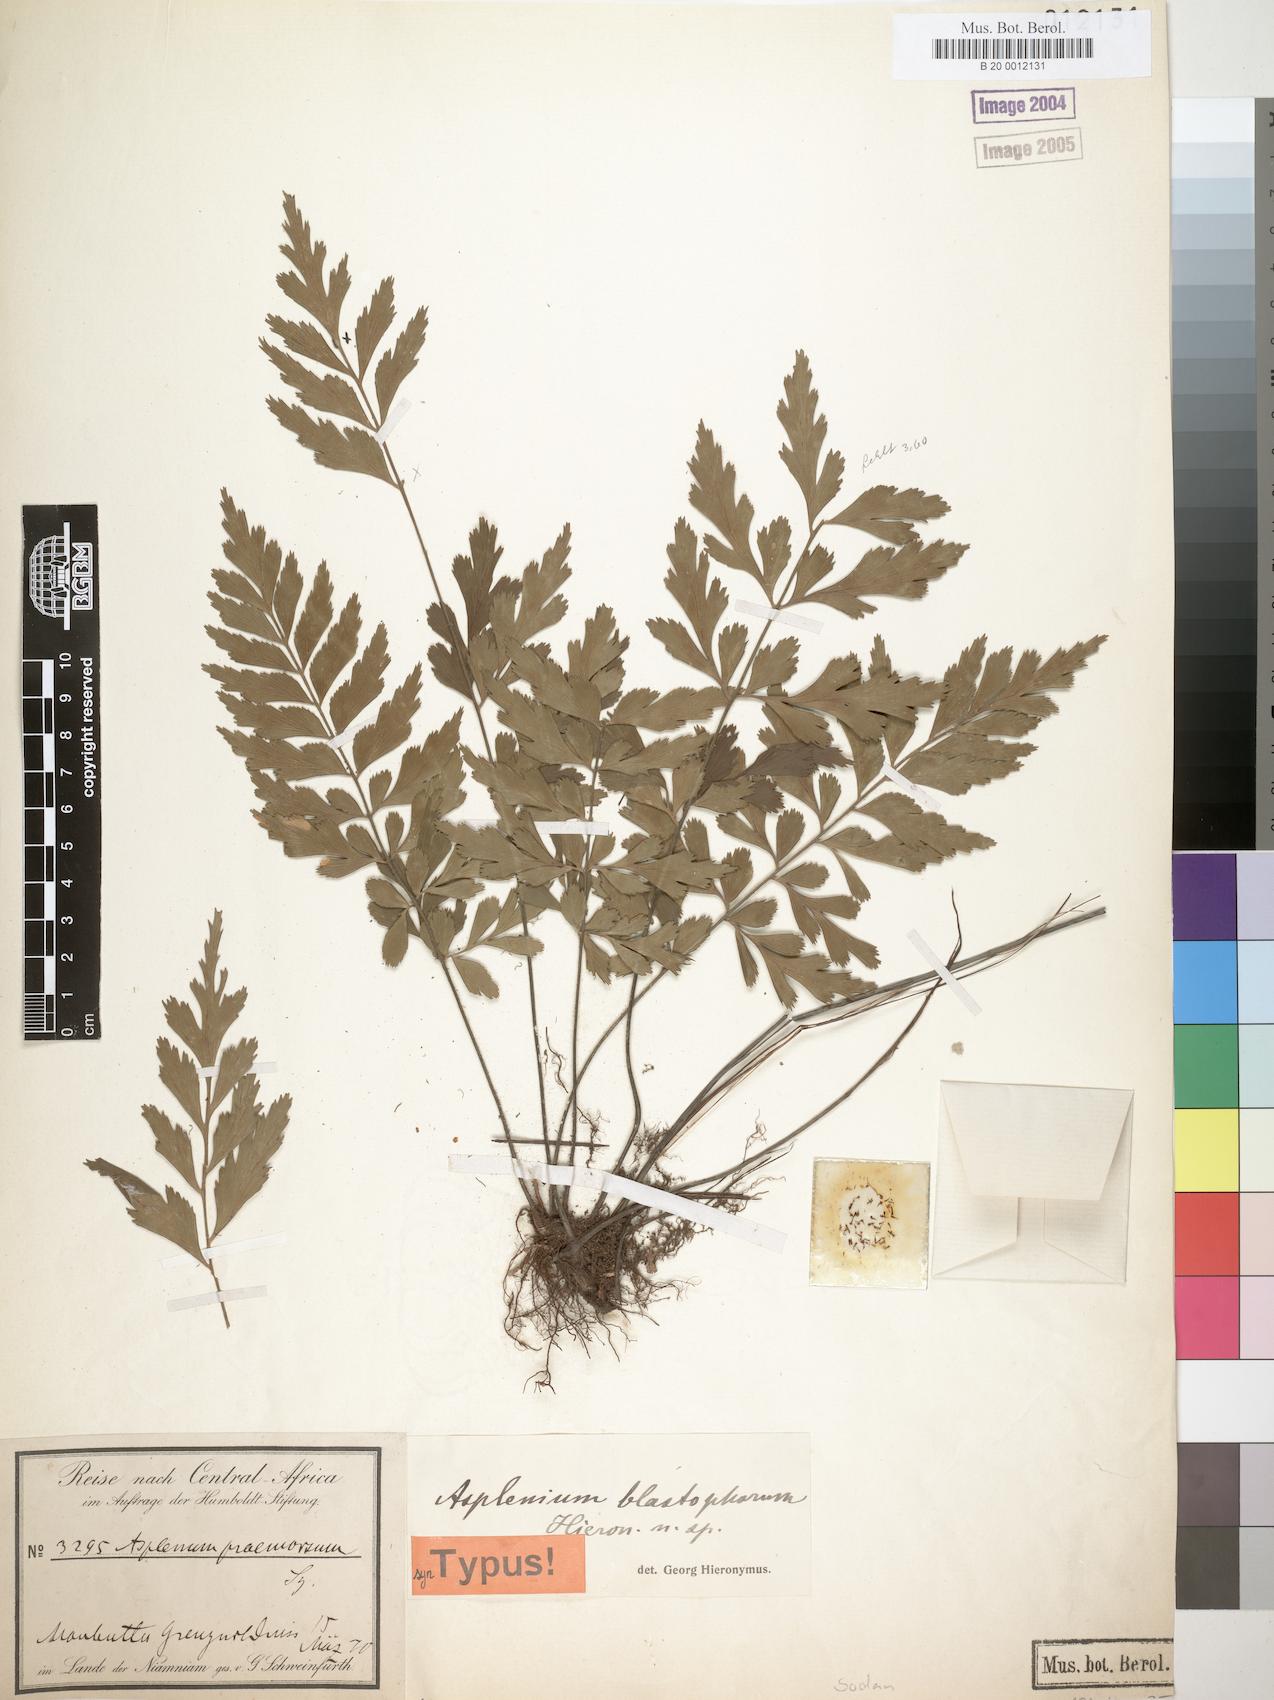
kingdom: Plantae
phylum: Tracheophyta
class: Polypodiopsida
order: Polypodiales
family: Aspleniaceae
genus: Asplenium
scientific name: Asplenium blastophorum
